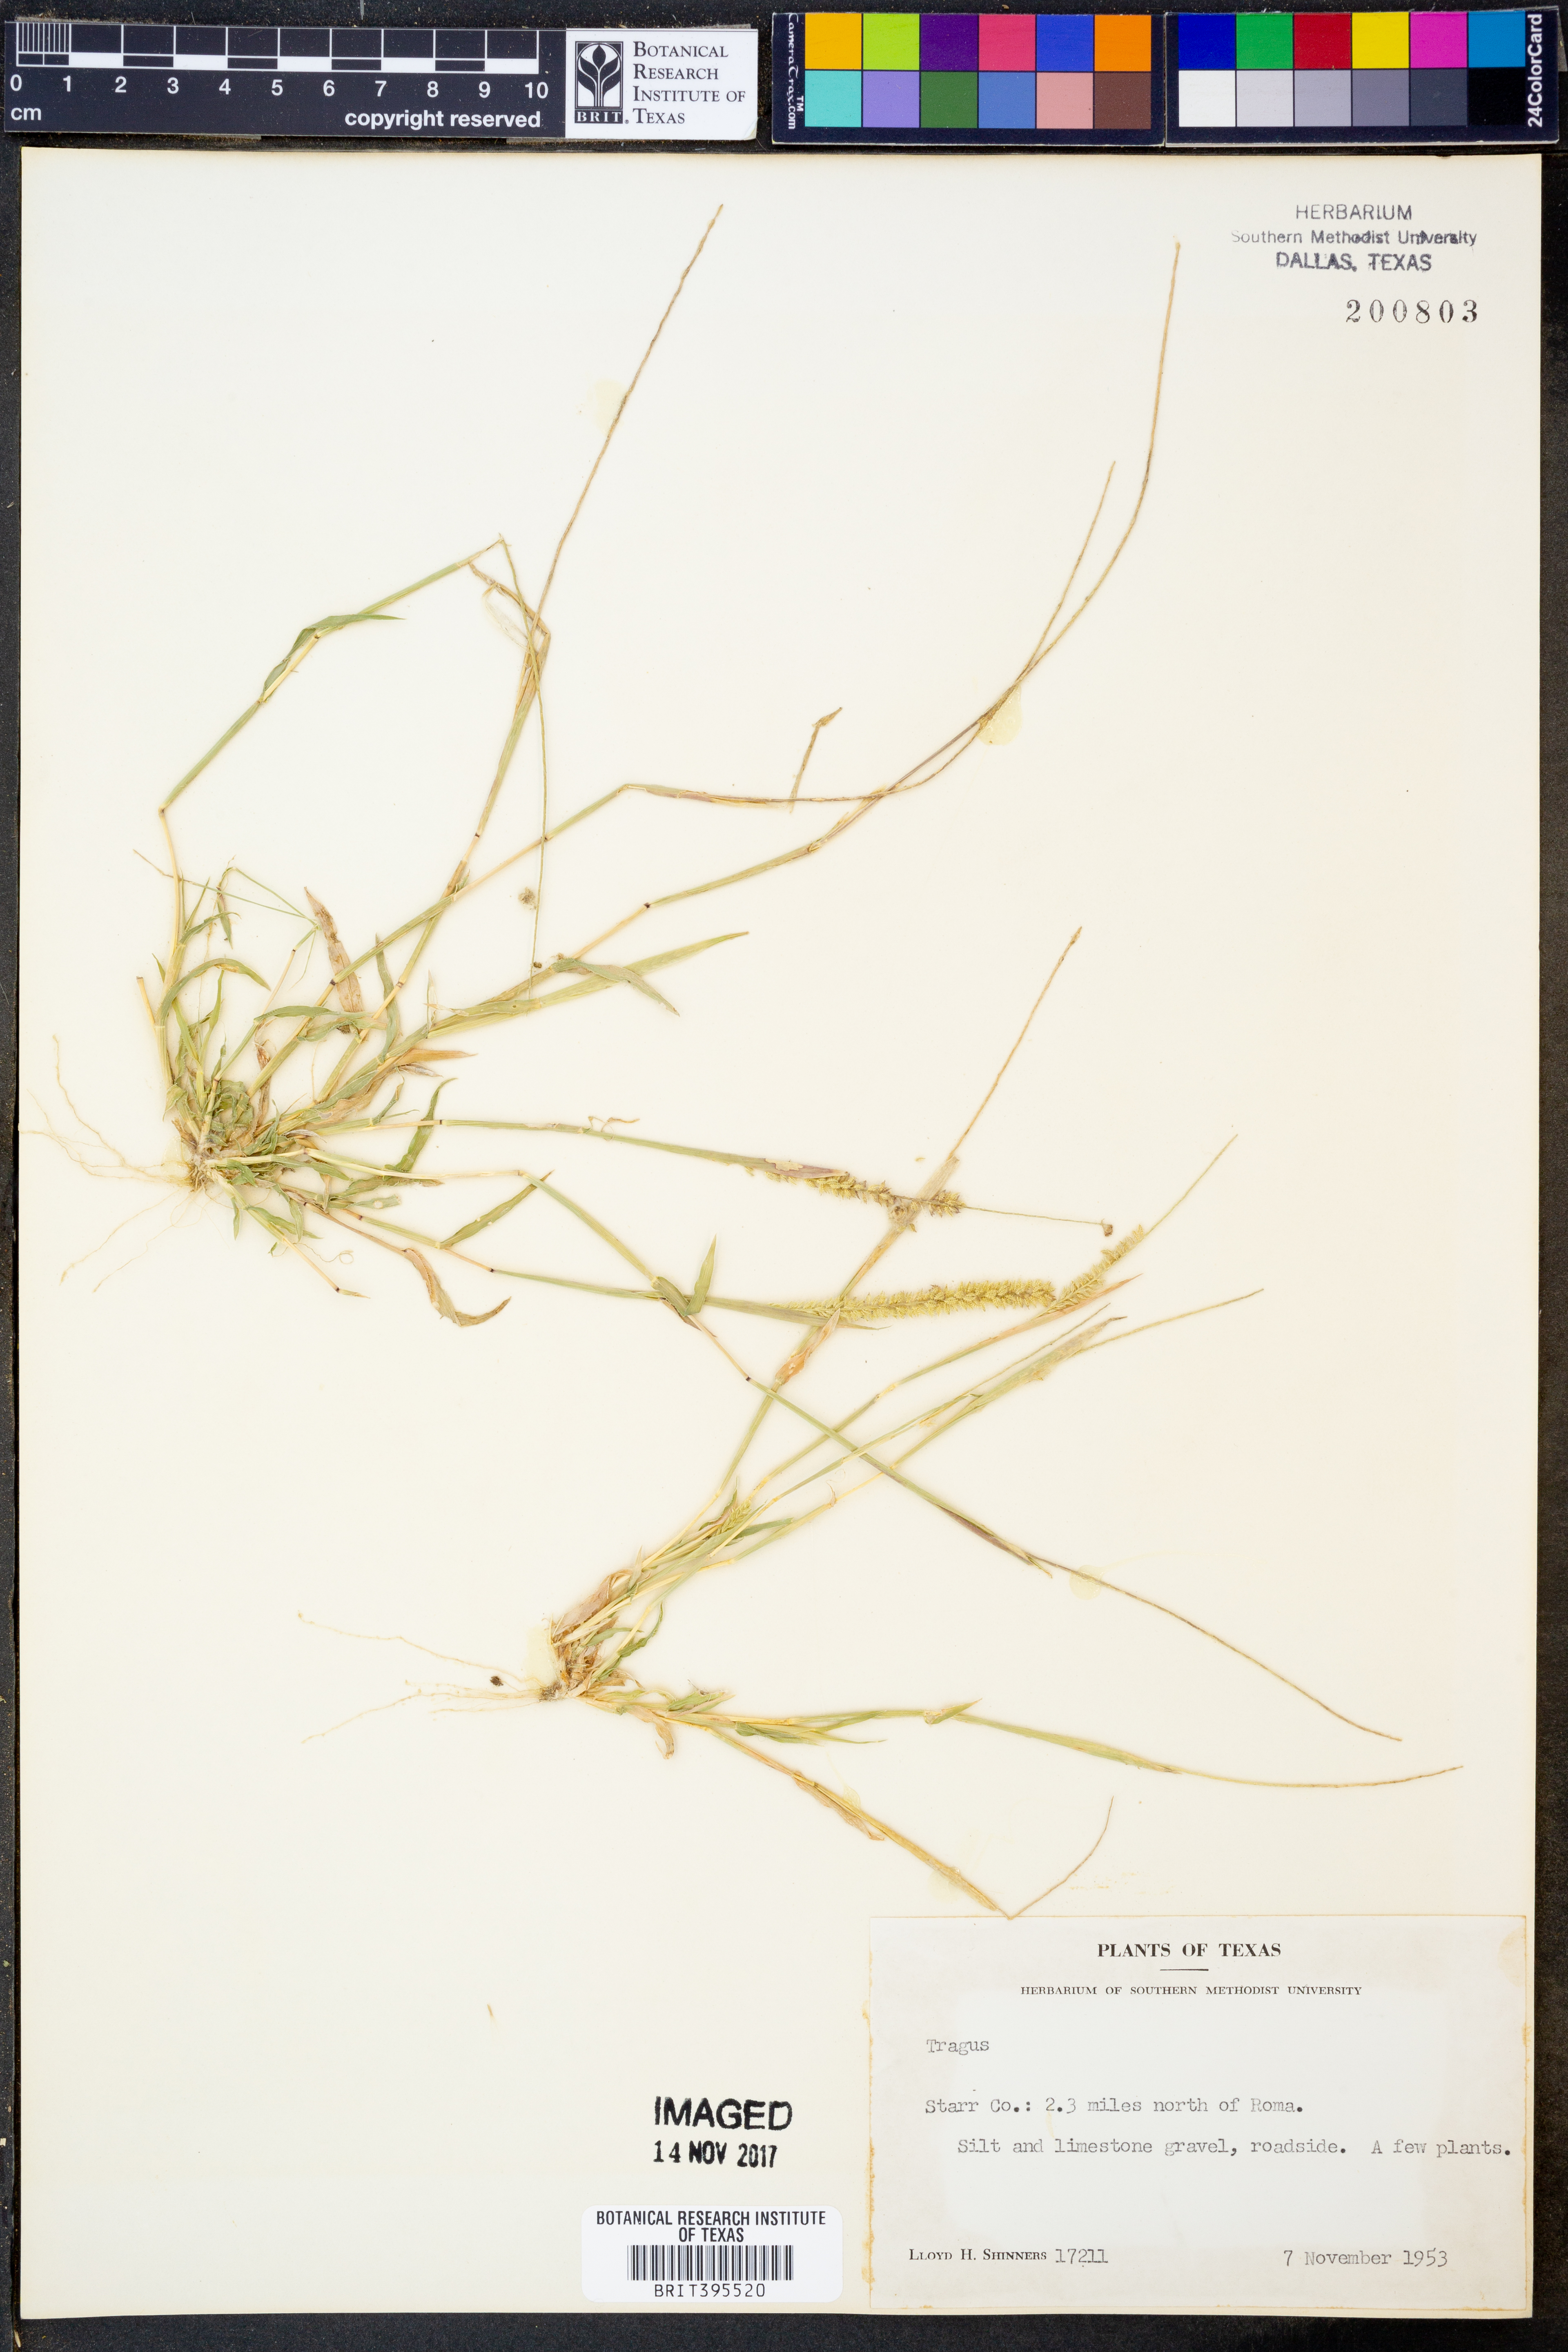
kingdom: Plantae
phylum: Tracheophyta
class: Liliopsida
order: Poales
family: Poaceae
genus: Tragus
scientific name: Tragus
